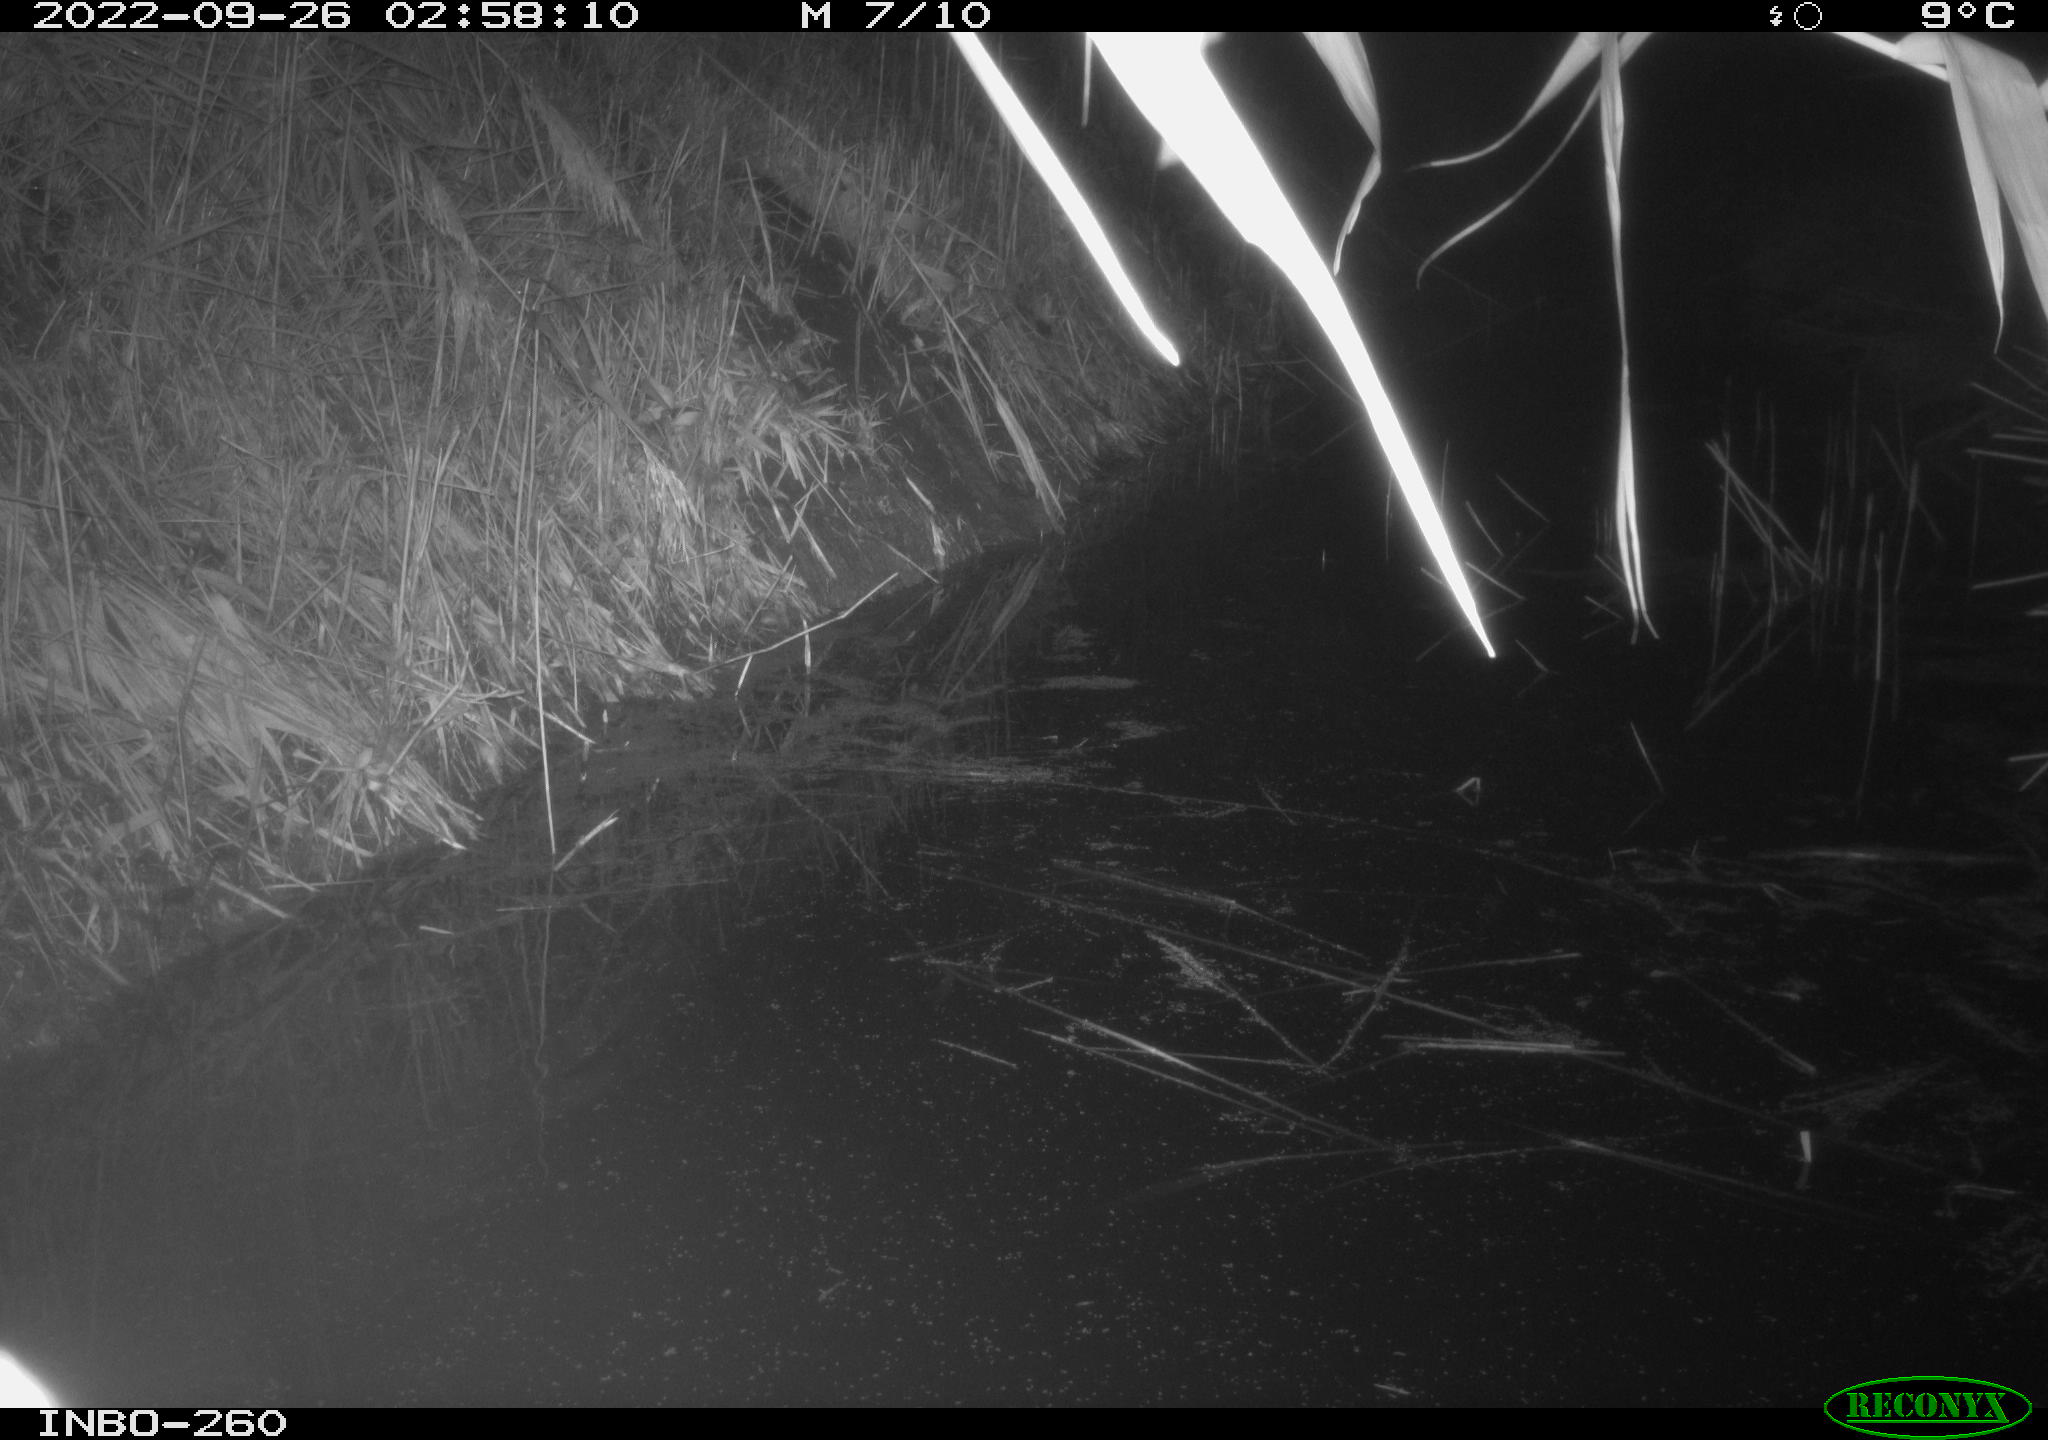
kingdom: Animalia
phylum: Chordata
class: Mammalia
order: Rodentia
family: Muridae
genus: Rattus
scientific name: Rattus norvegicus
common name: Brown rat
